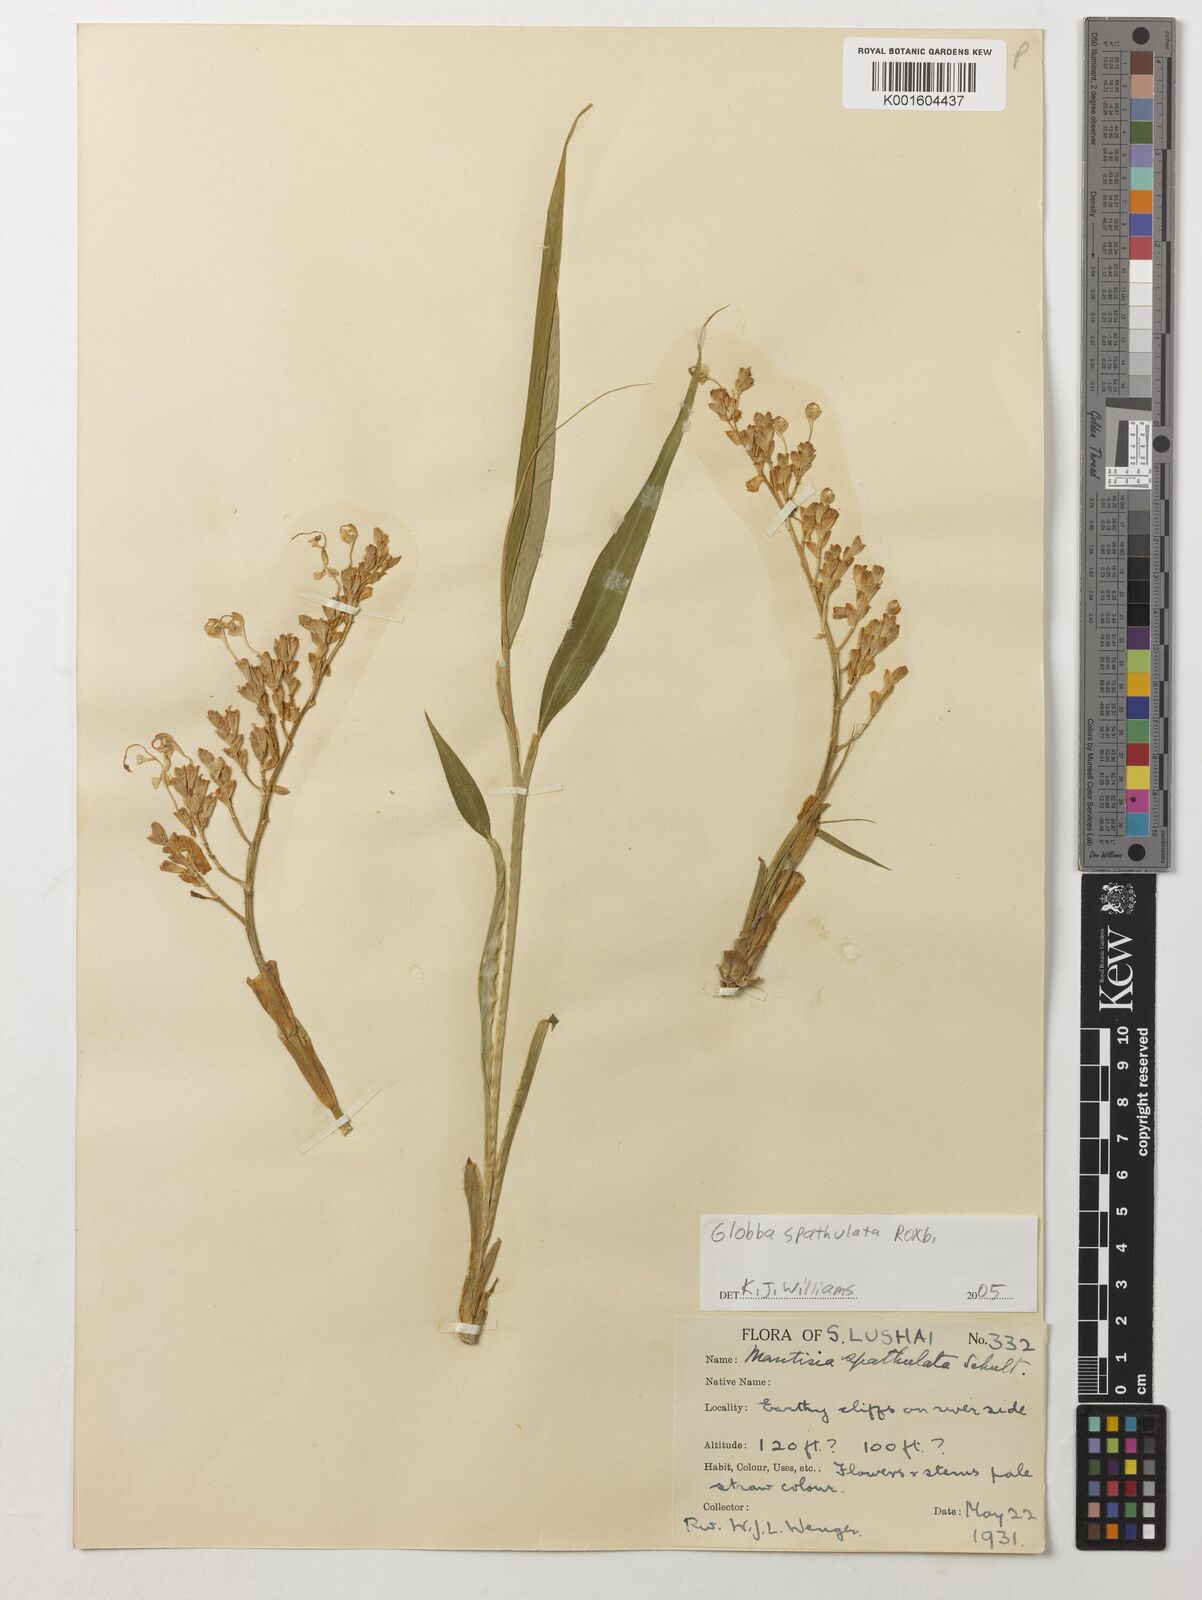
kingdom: Plantae
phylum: Tracheophyta
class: Liliopsida
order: Zingiberales
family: Zingiberaceae
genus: Globba
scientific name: Globba spathulata
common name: Dancing girl flower
